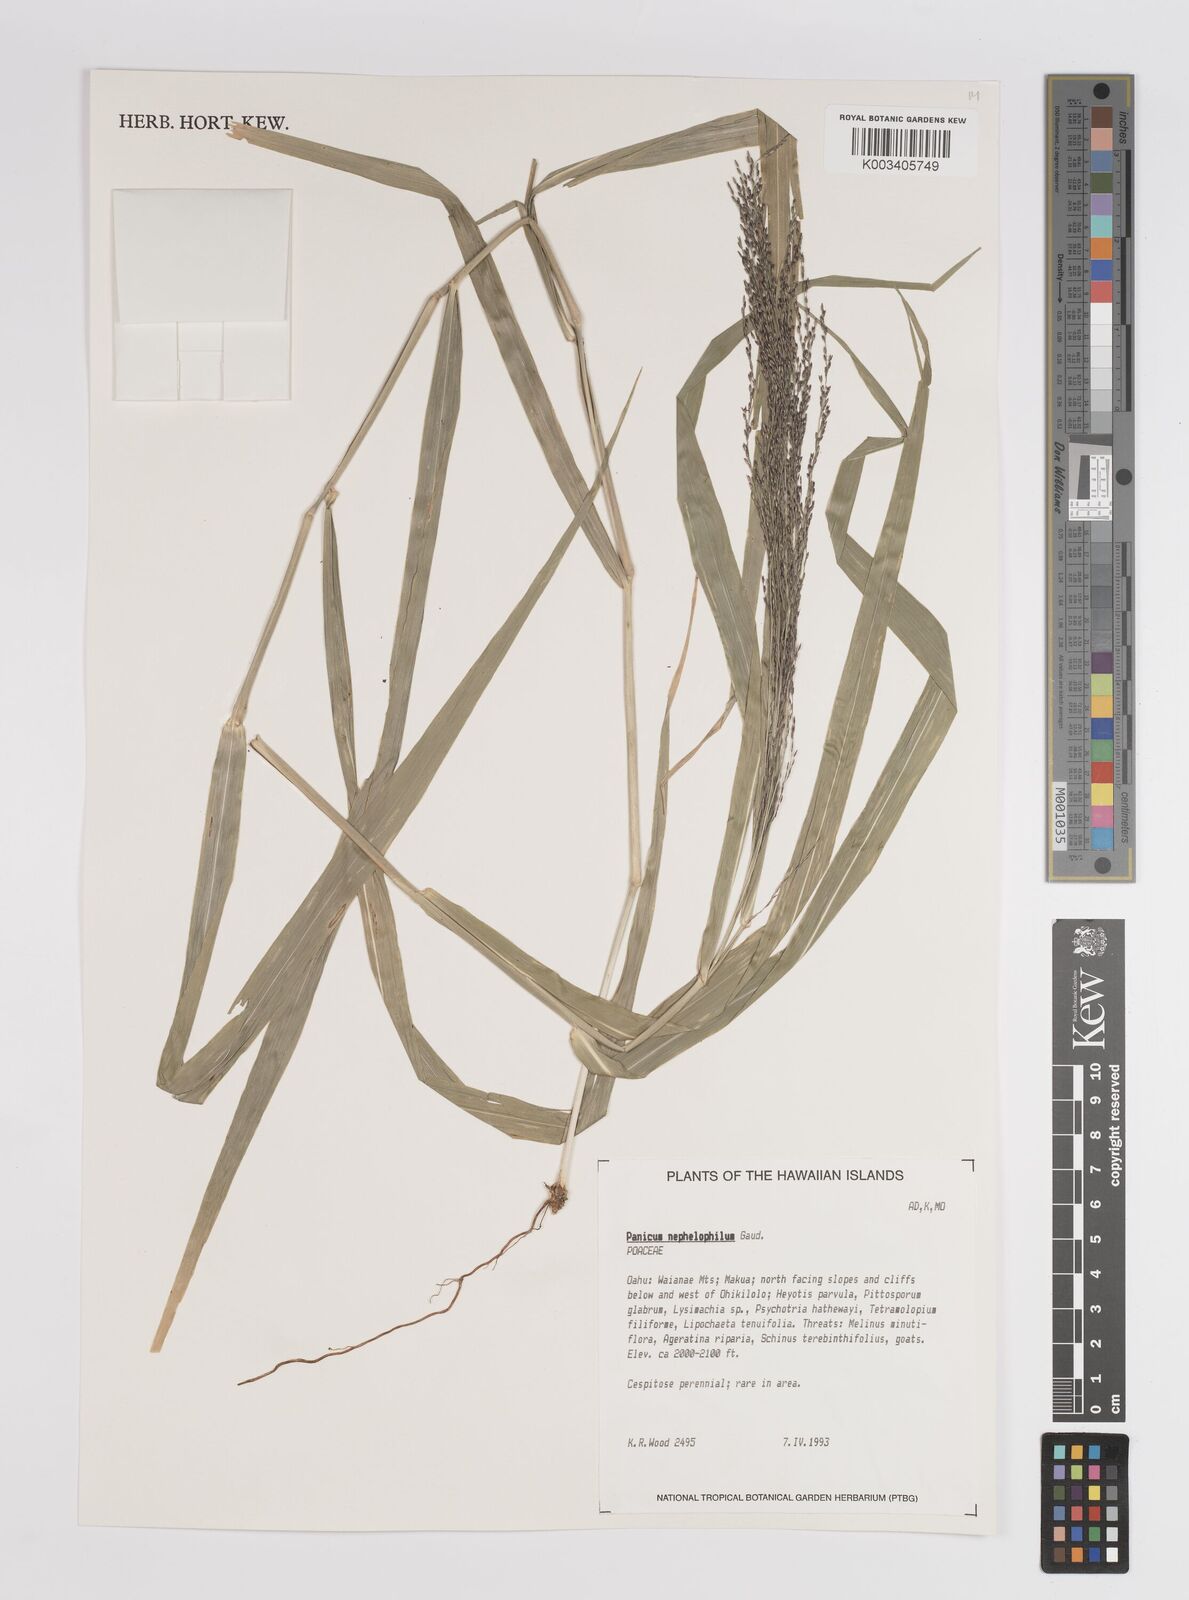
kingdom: Plantae
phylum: Tracheophyta
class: Liliopsida
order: Poales
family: Poaceae
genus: Panicum
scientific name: Panicum nephelophilum
